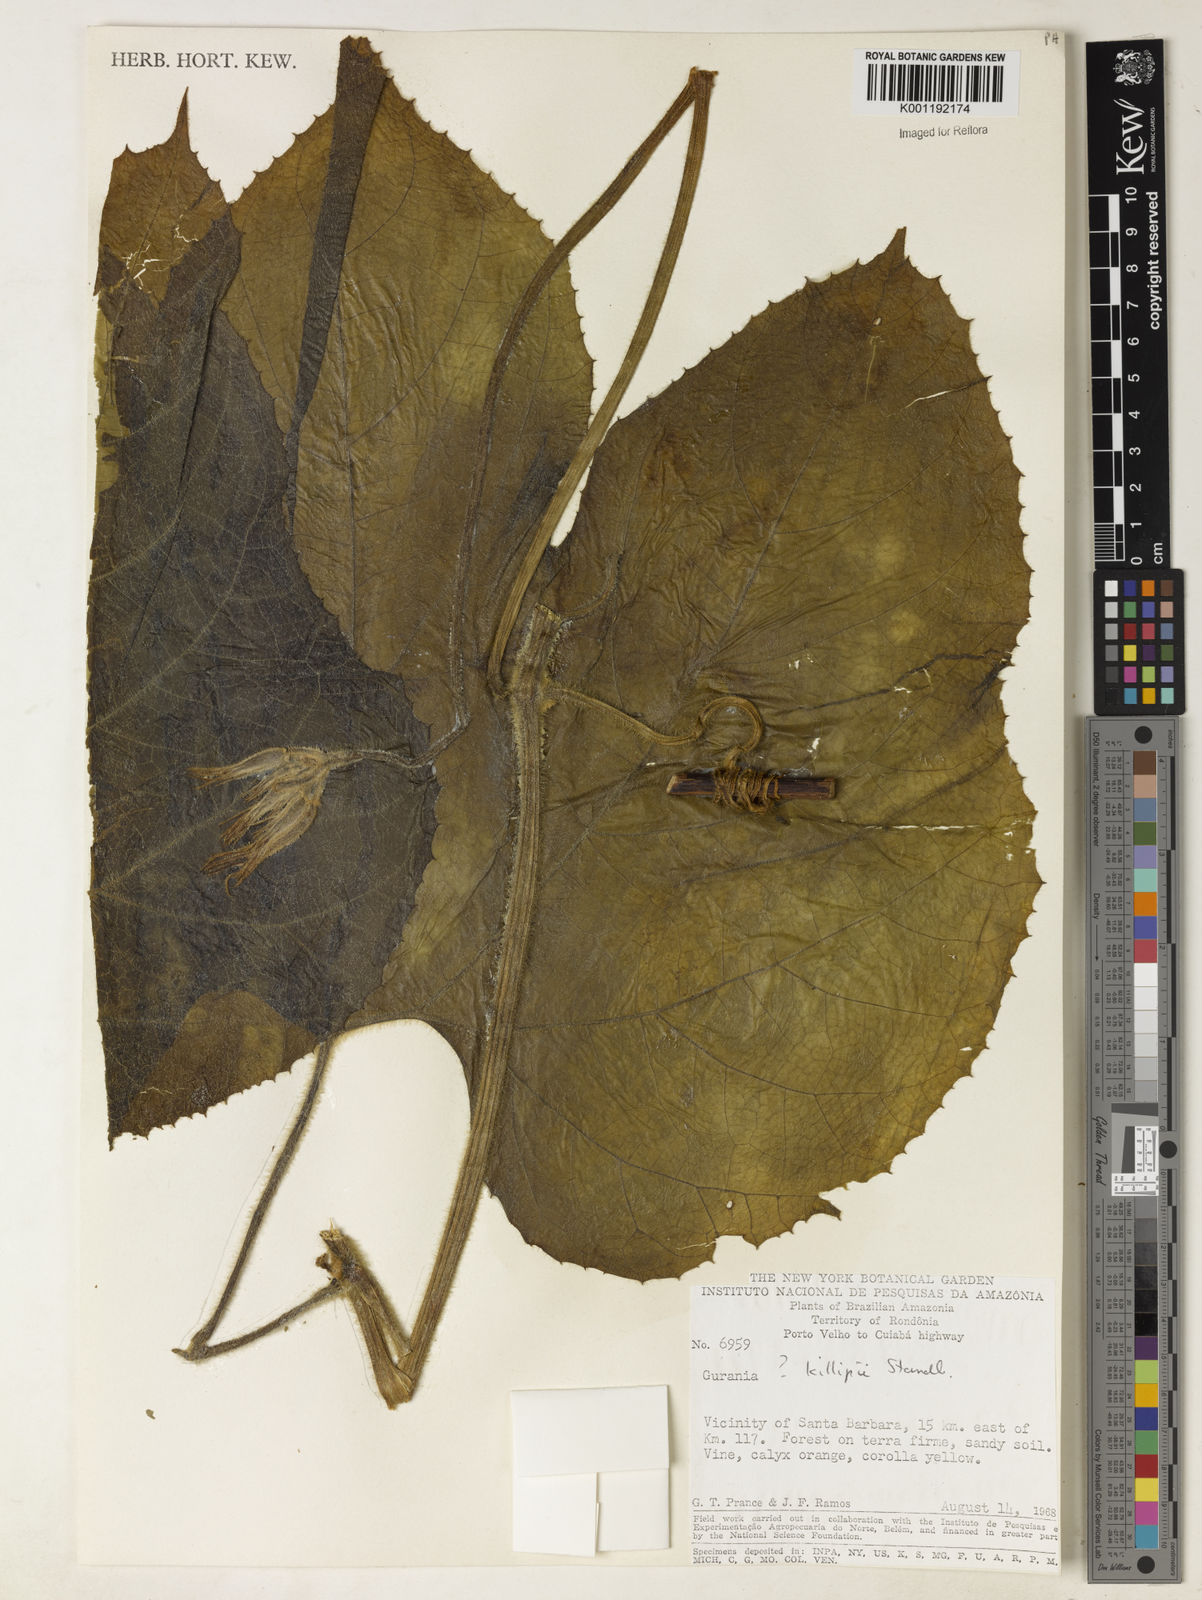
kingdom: Plantae
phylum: Tracheophyta
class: Magnoliopsida
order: Cucurbitales
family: Cucurbitaceae
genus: Gurania
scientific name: Gurania
